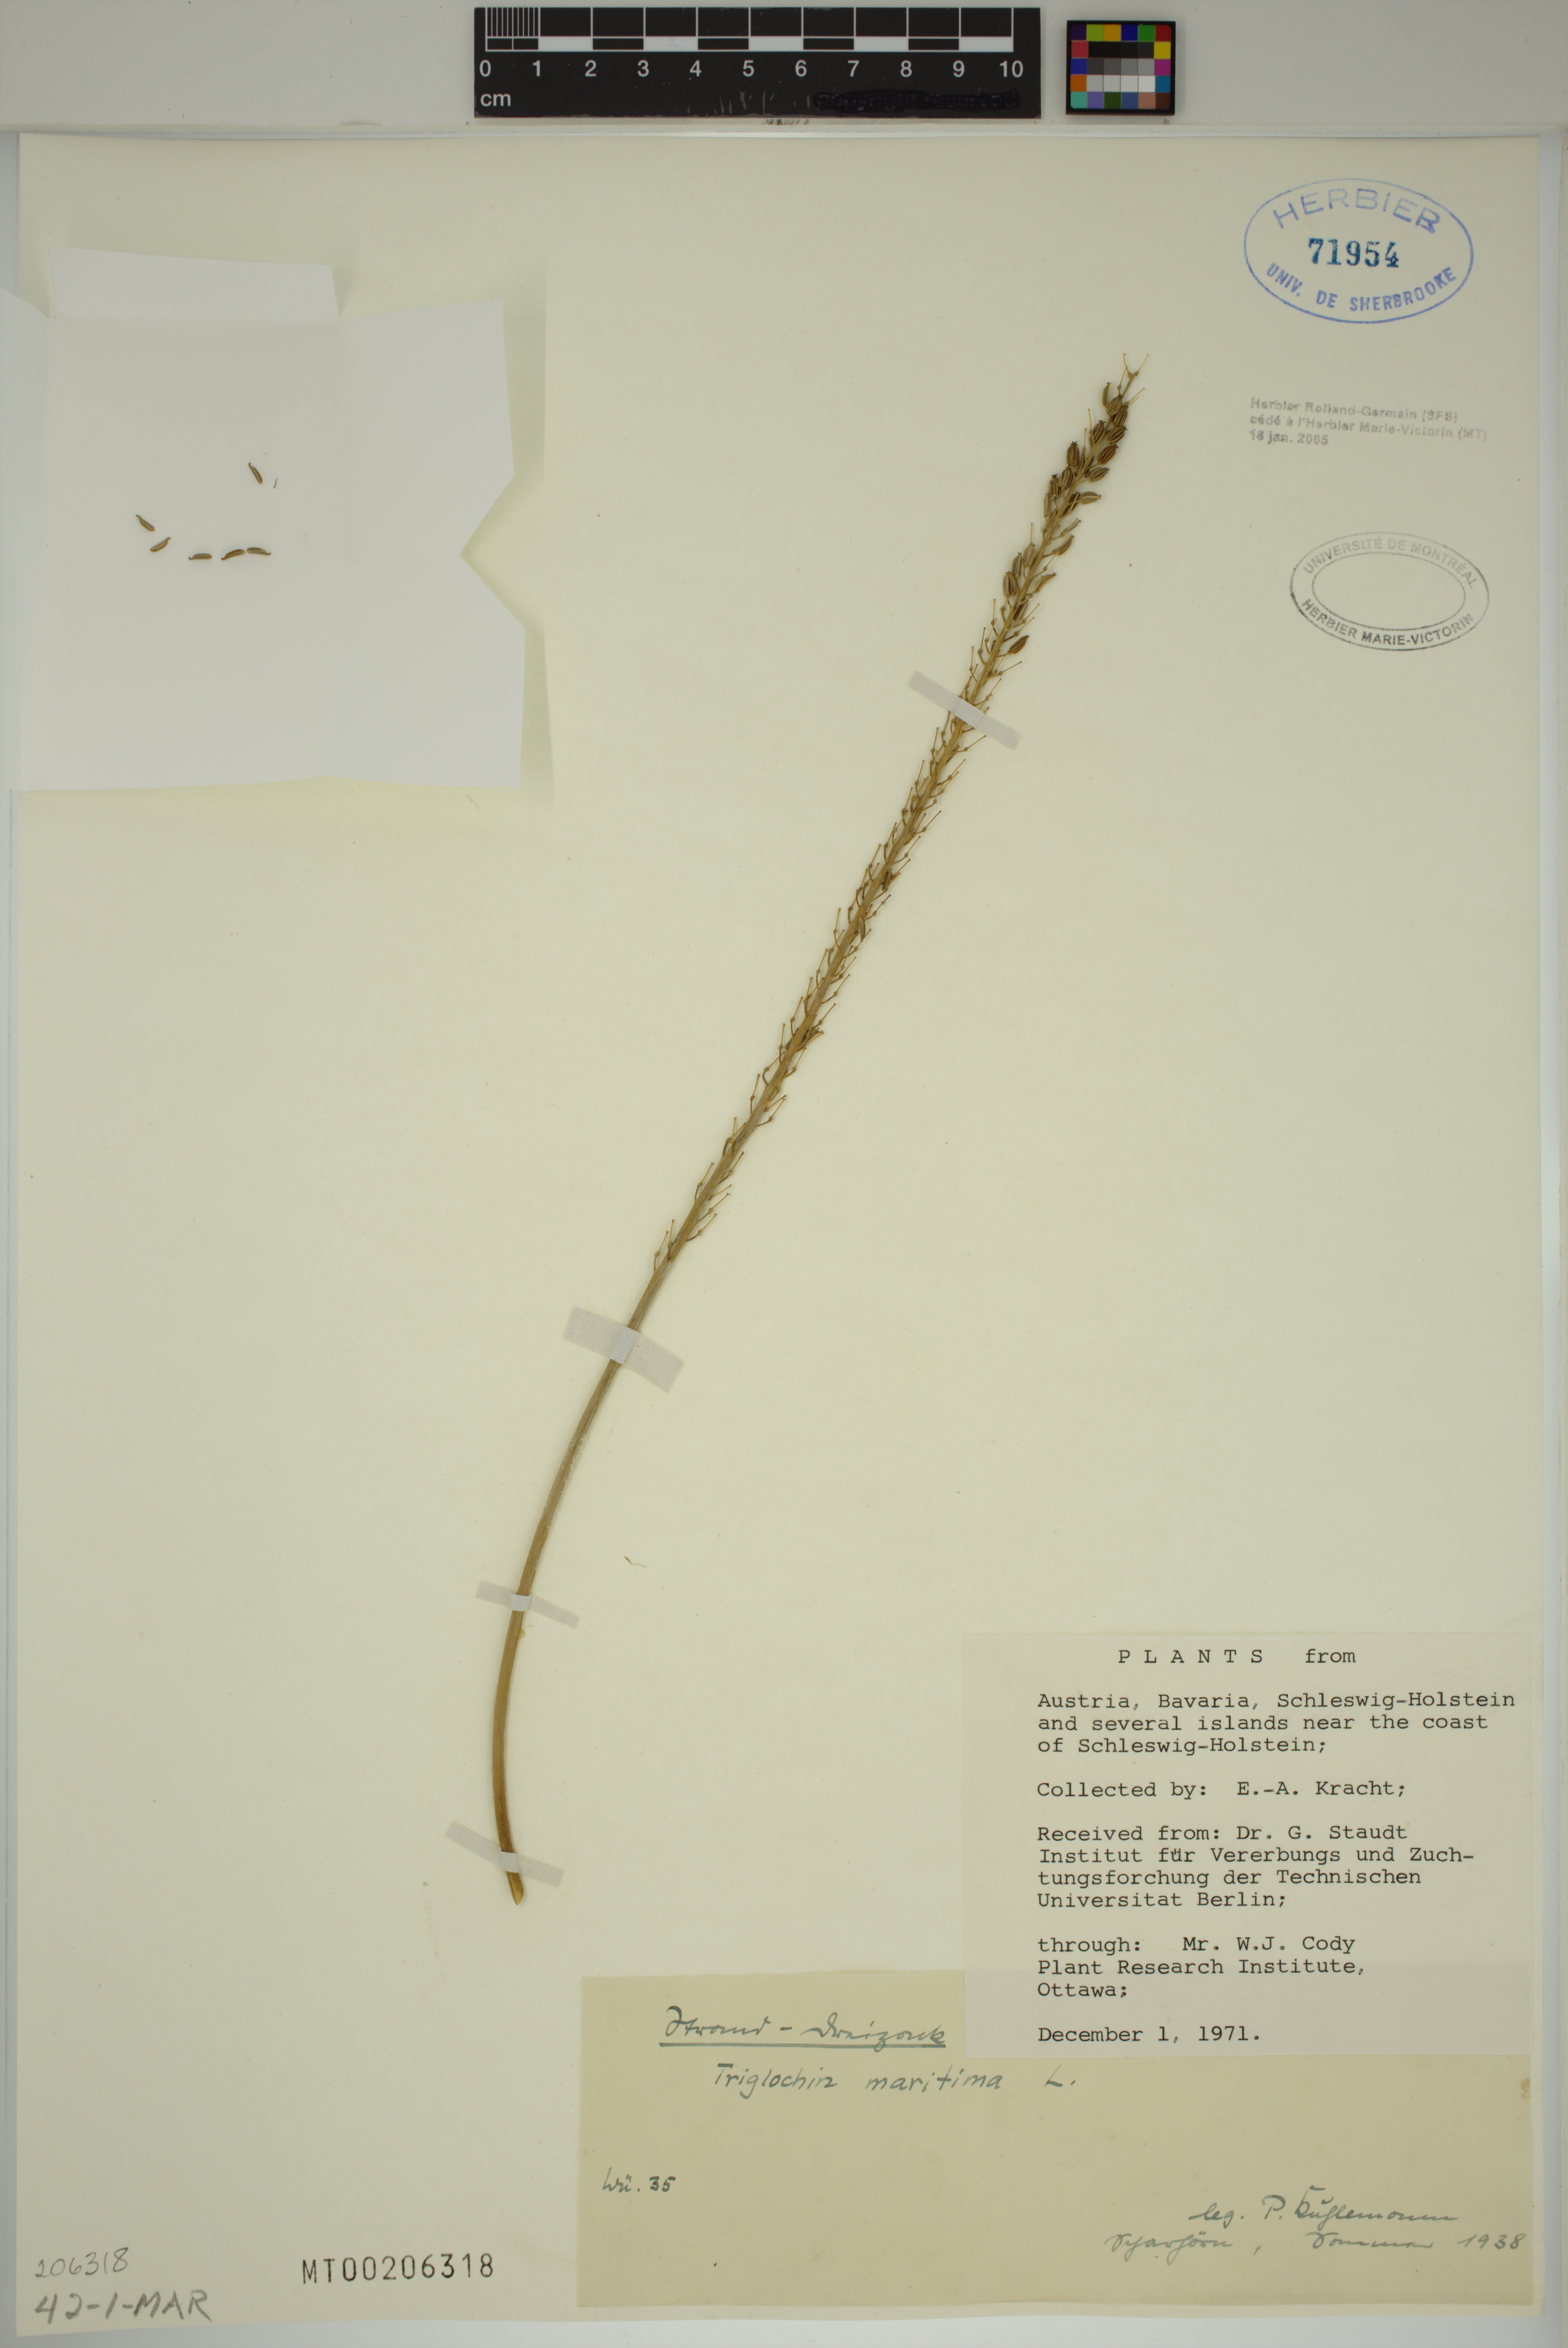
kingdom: Plantae
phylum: Tracheophyta
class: Liliopsida
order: Alismatales
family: Juncaginaceae
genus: Triglochin
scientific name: Triglochin maritima
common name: Sea arrowgrass
